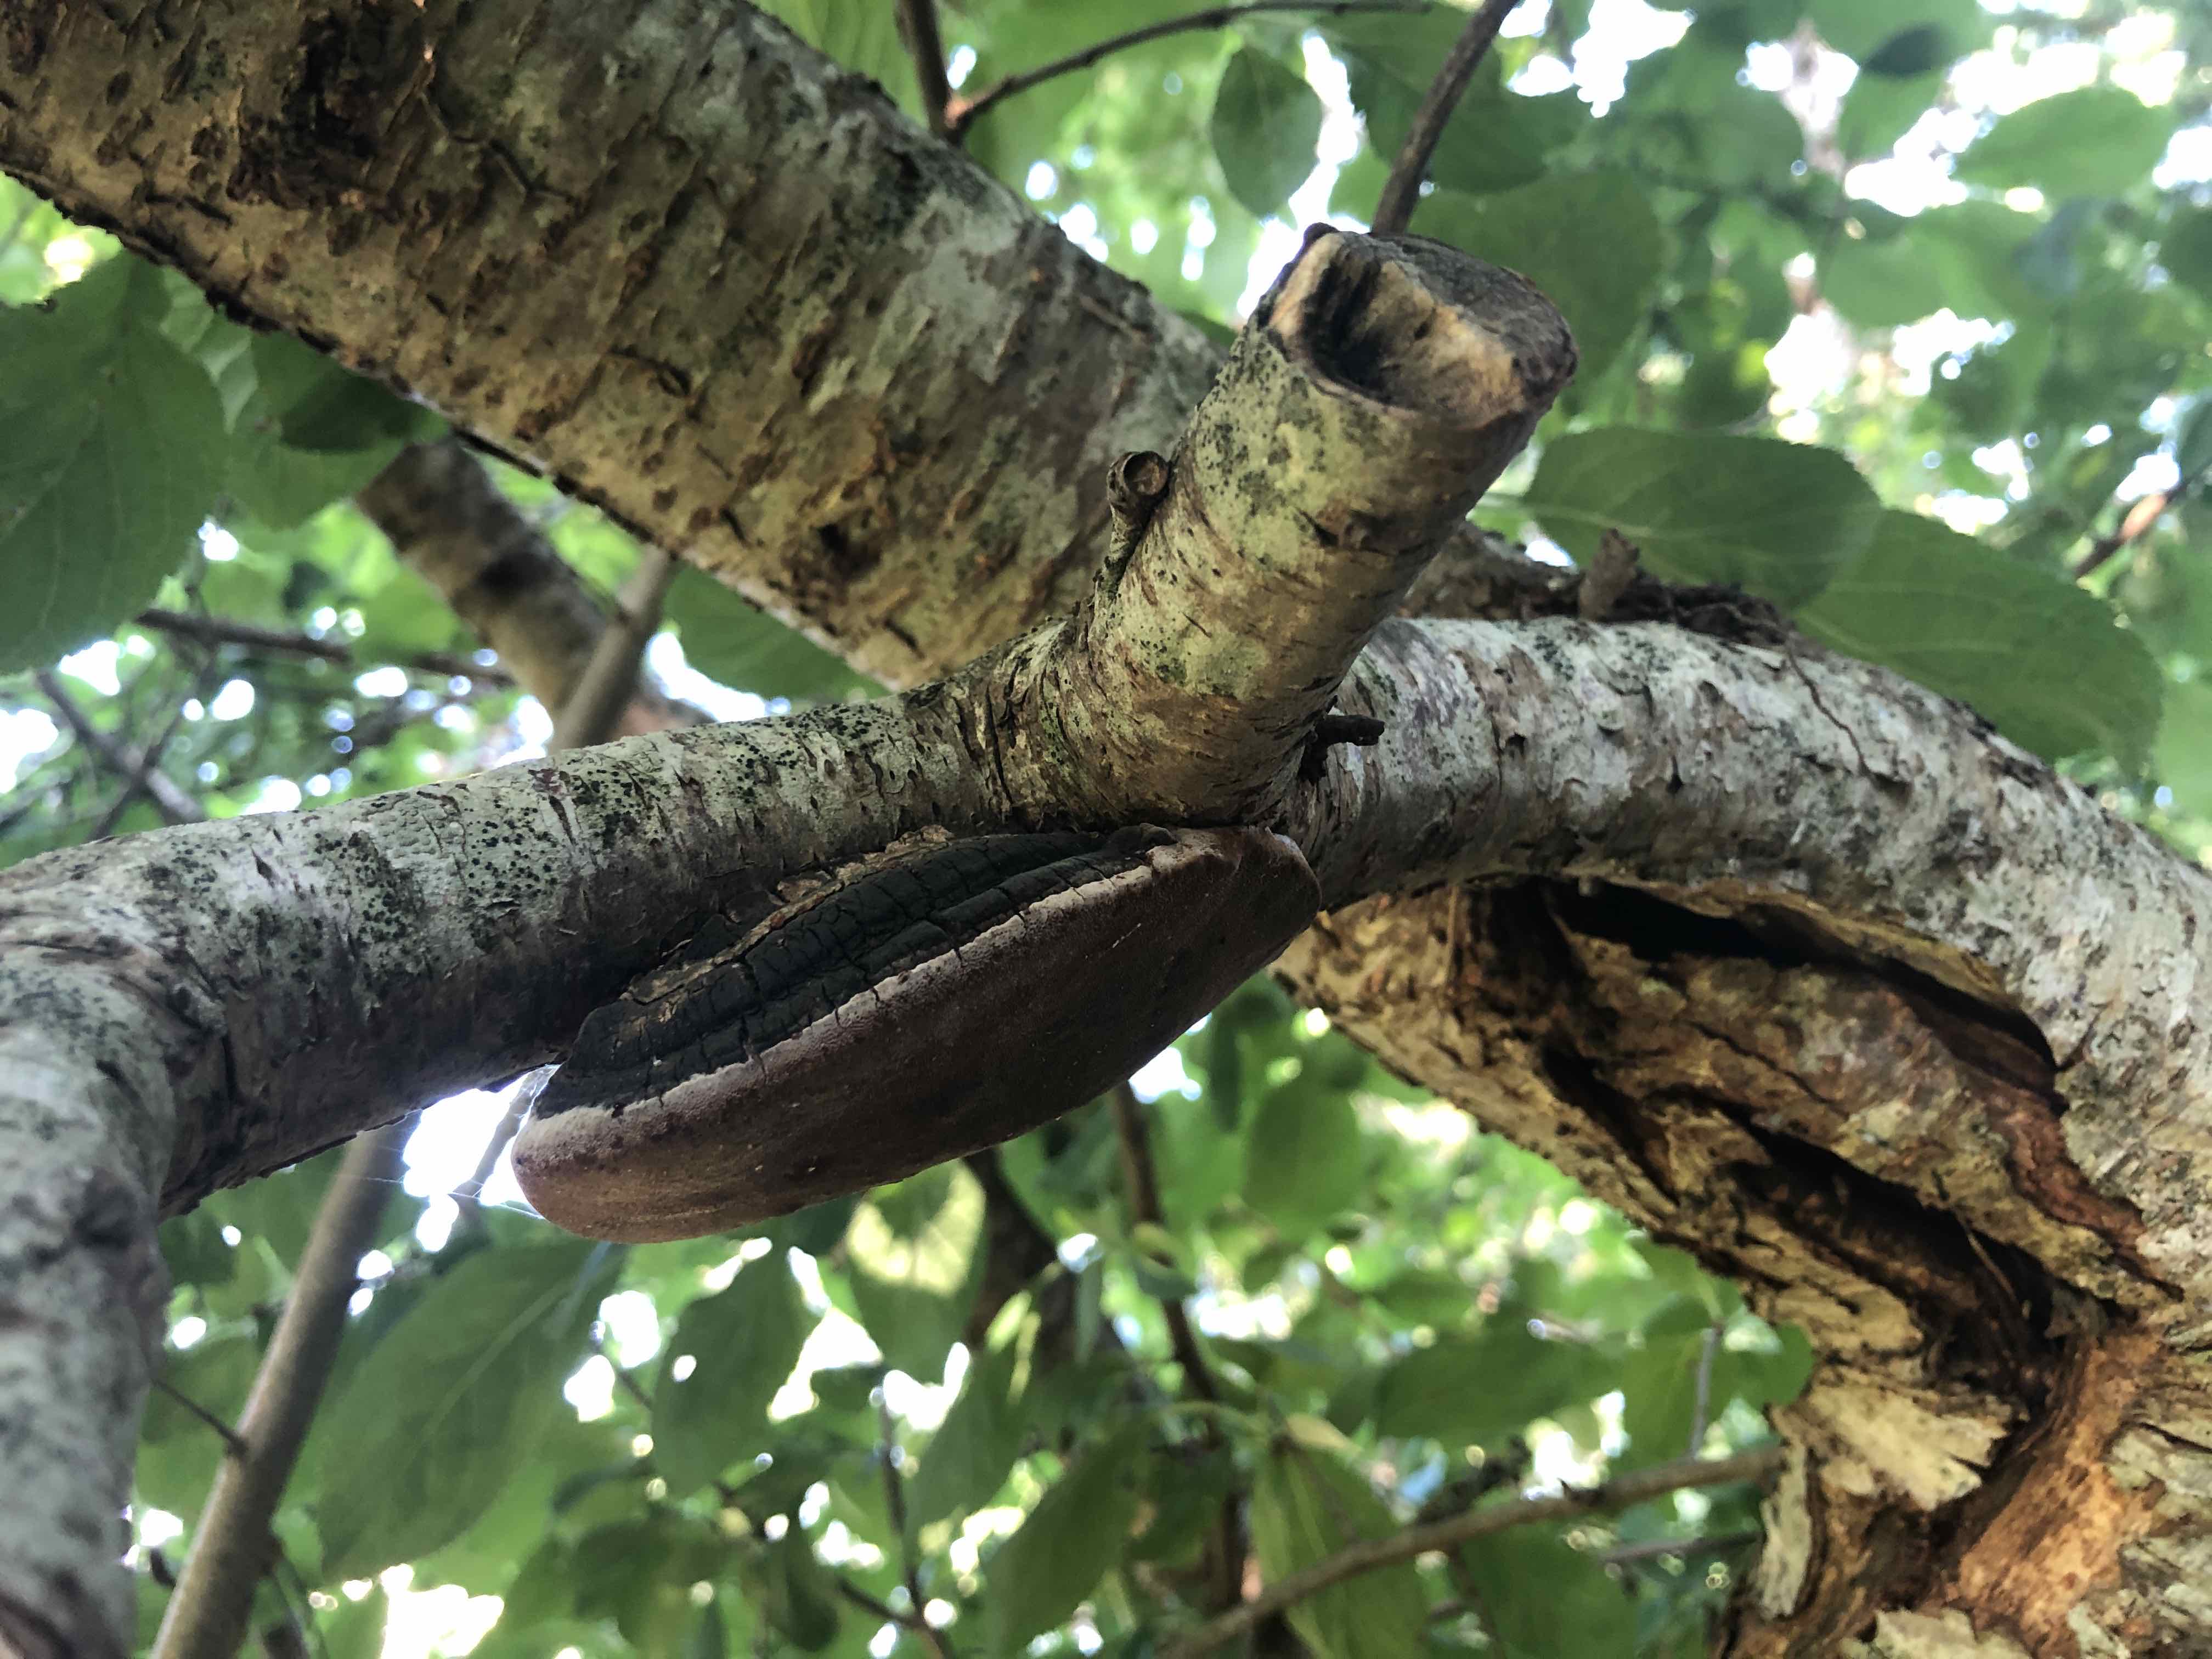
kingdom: Fungi
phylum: Basidiomycota
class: Agaricomycetes
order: Hymenochaetales
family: Hymenochaetaceae
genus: Phellinus
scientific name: Phellinus pomaceus
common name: blomme-ildporesvamp
